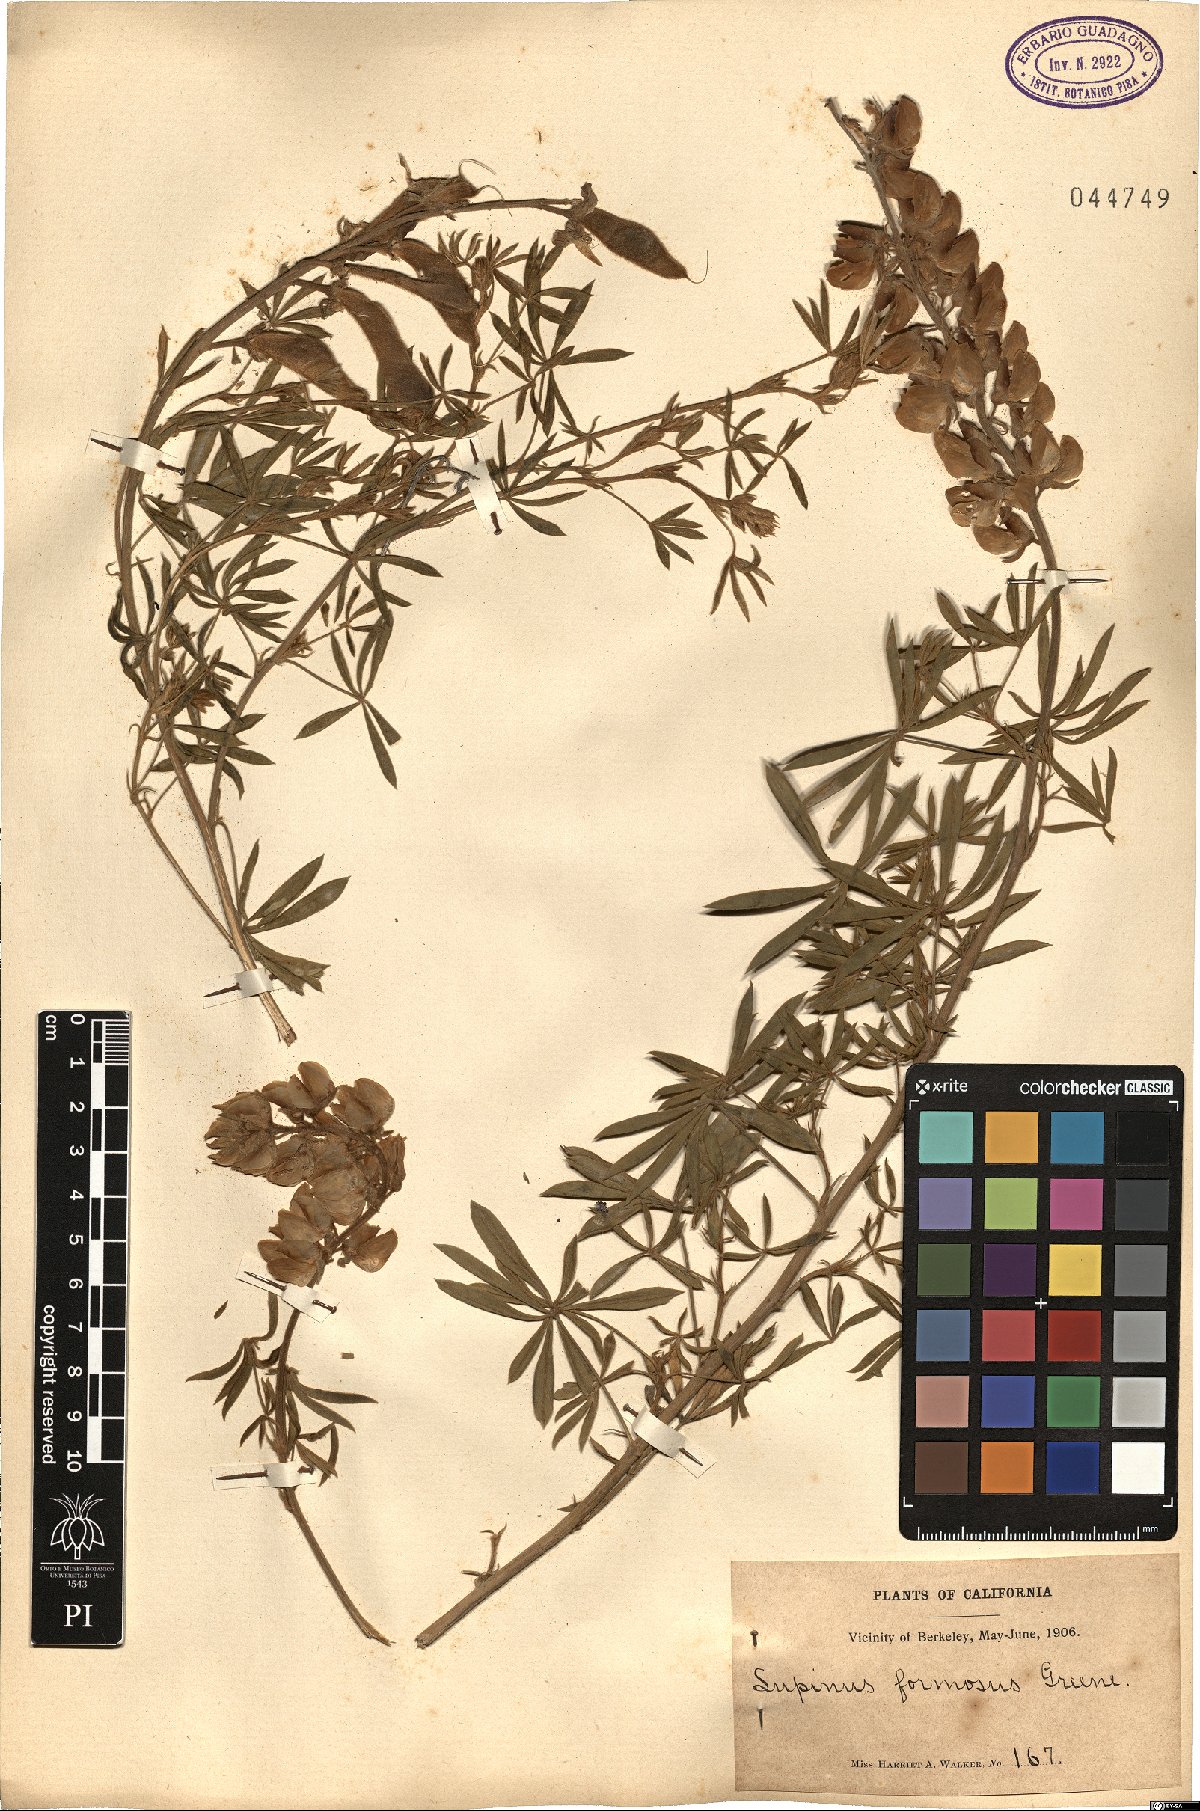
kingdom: Plantae
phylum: Tracheophyta
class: Magnoliopsida
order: Fabales
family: Fabaceae
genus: Lupinus
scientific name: Lupinus formosus
